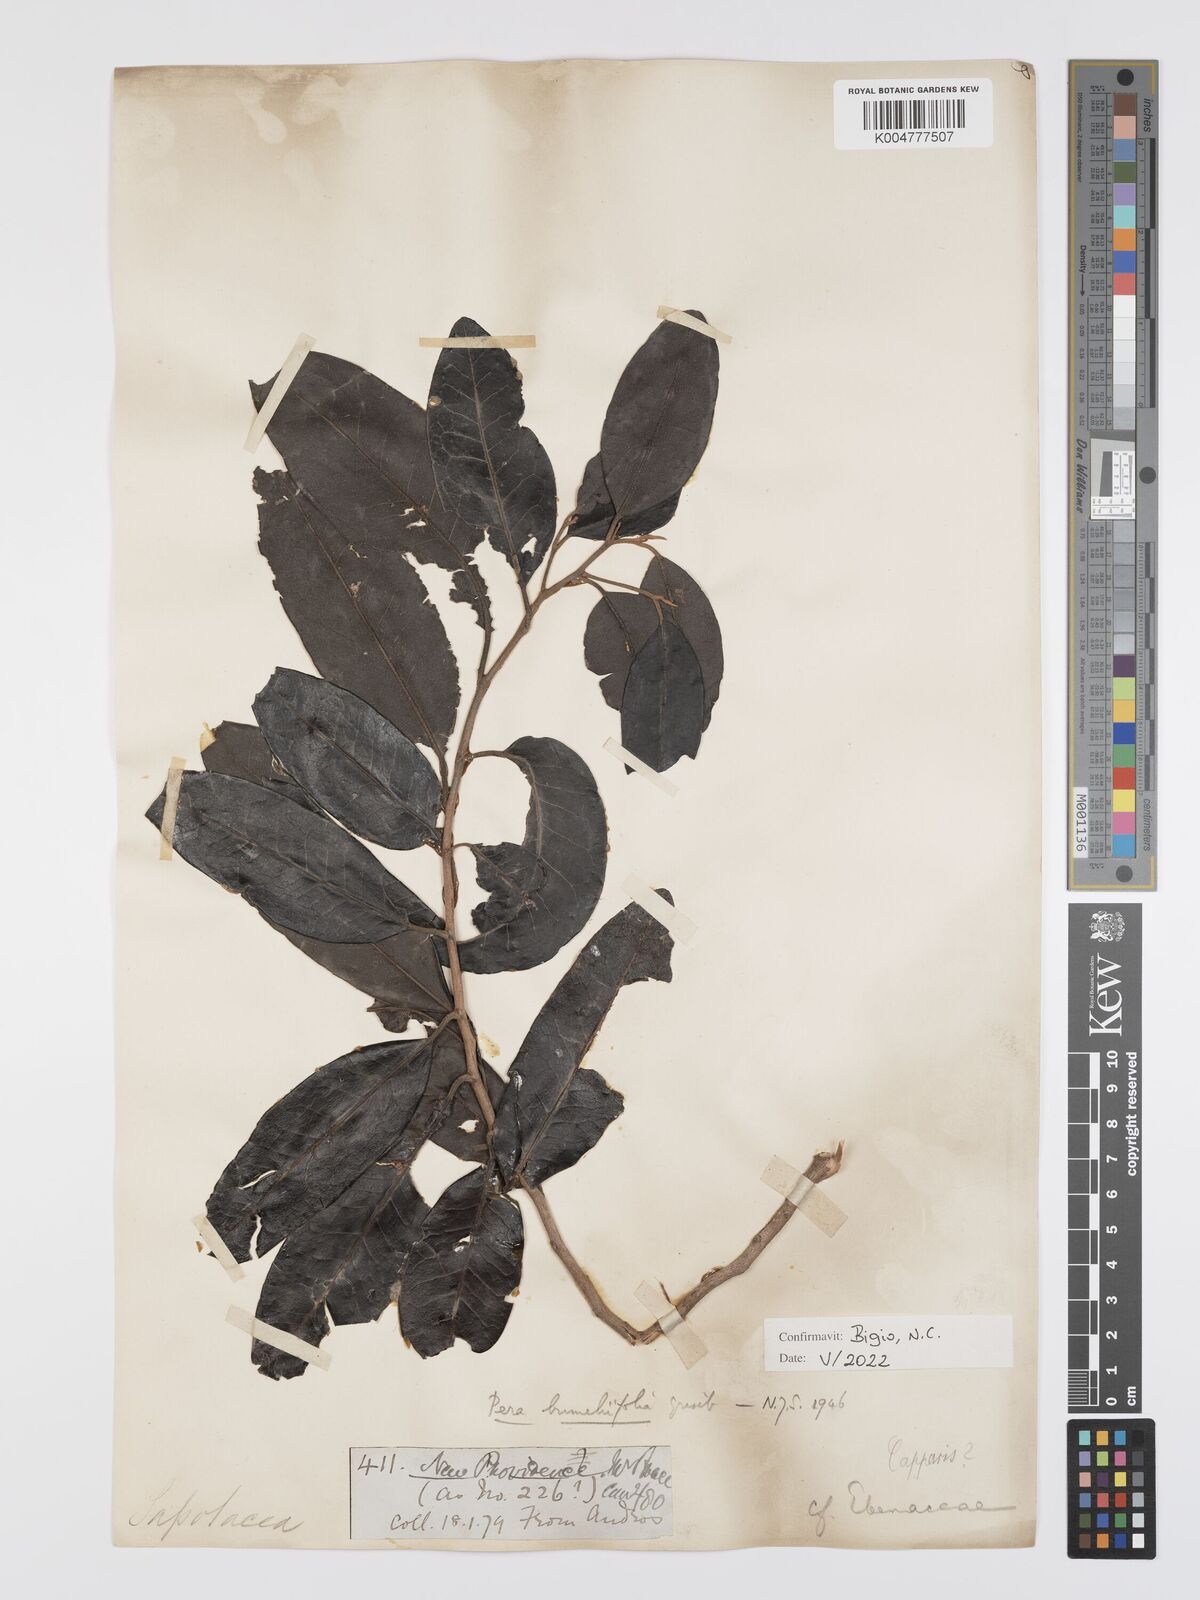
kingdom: Plantae
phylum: Tracheophyta
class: Magnoliopsida
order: Malpighiales
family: Peraceae
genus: Pera
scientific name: Pera
